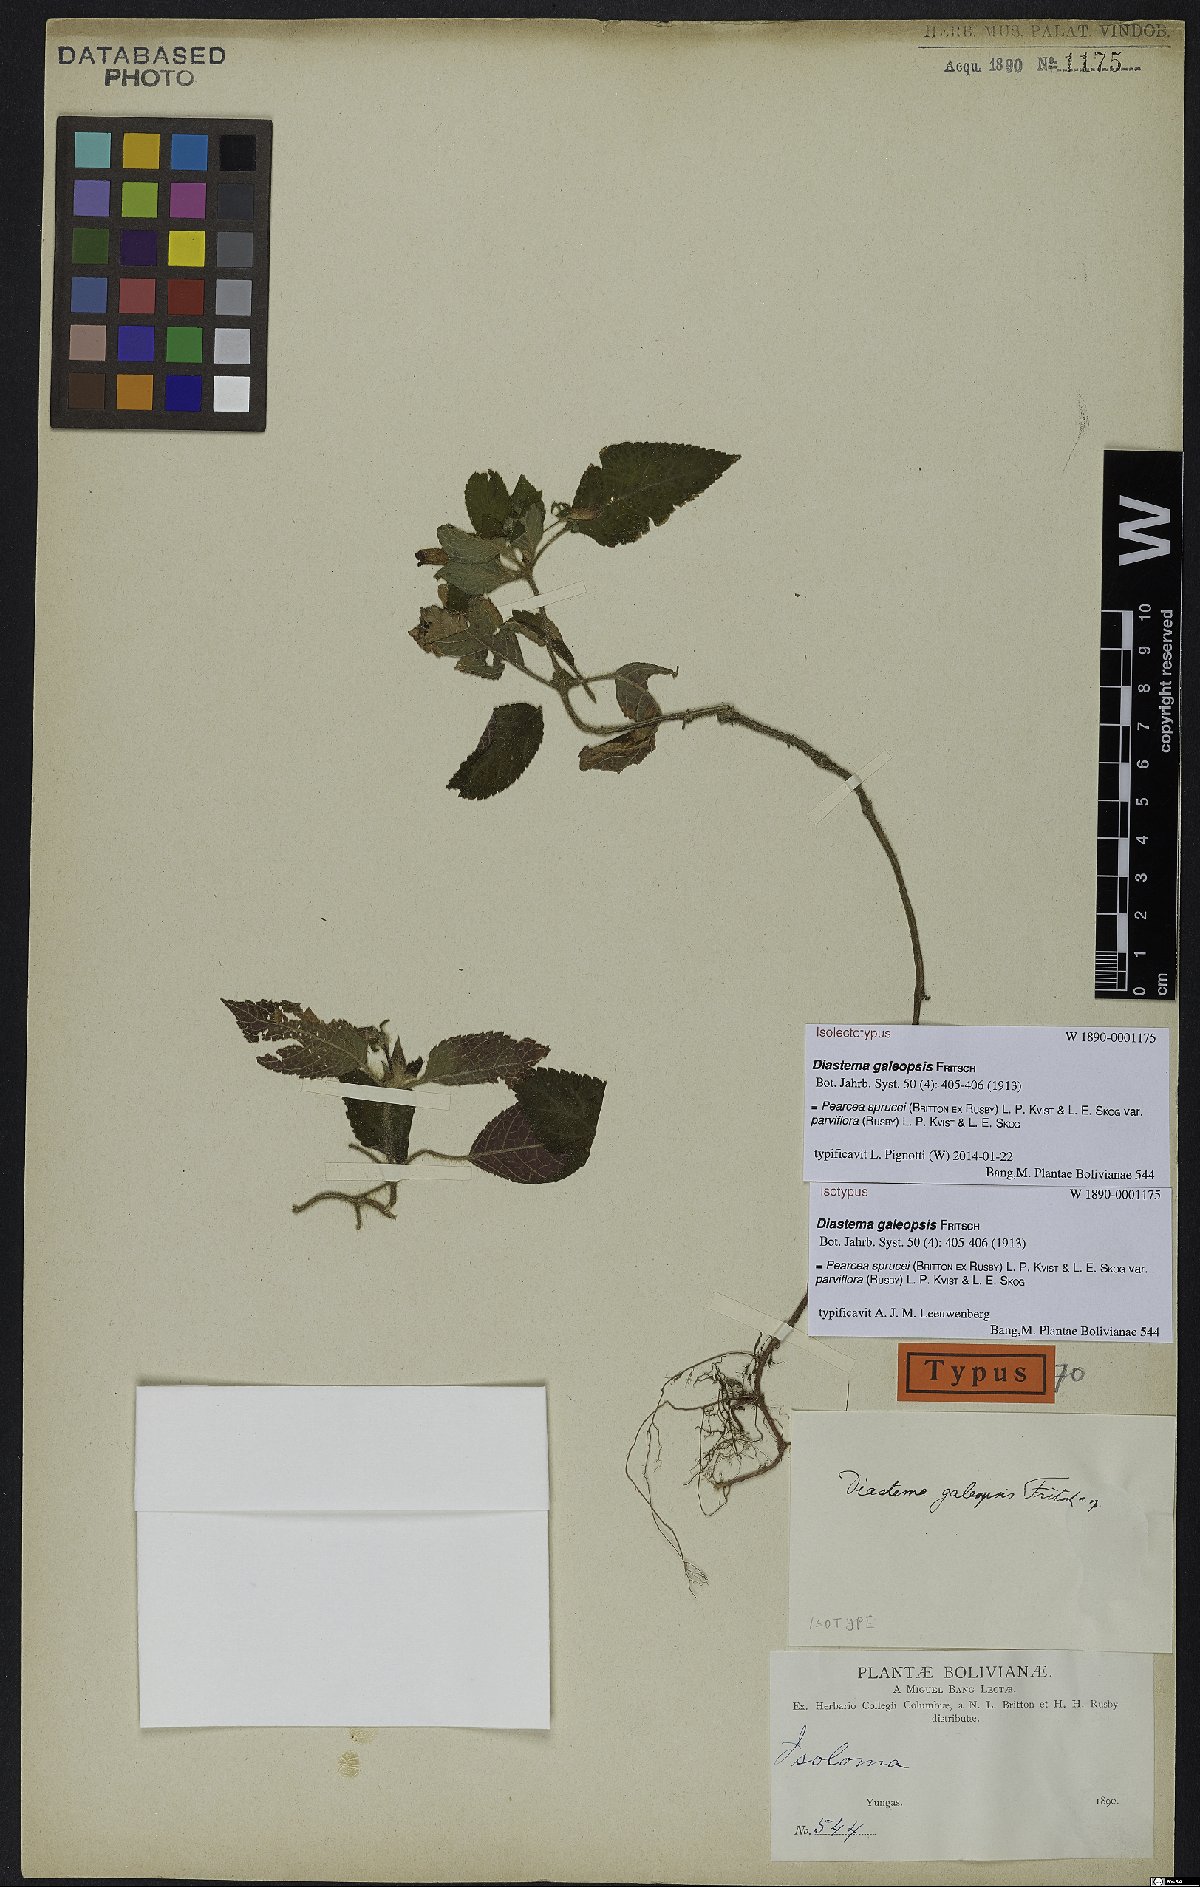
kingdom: Plantae
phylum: Tracheophyta
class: Magnoliopsida
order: Lamiales
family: Gesneriaceae
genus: Pearcea
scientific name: Pearcea sprucei
